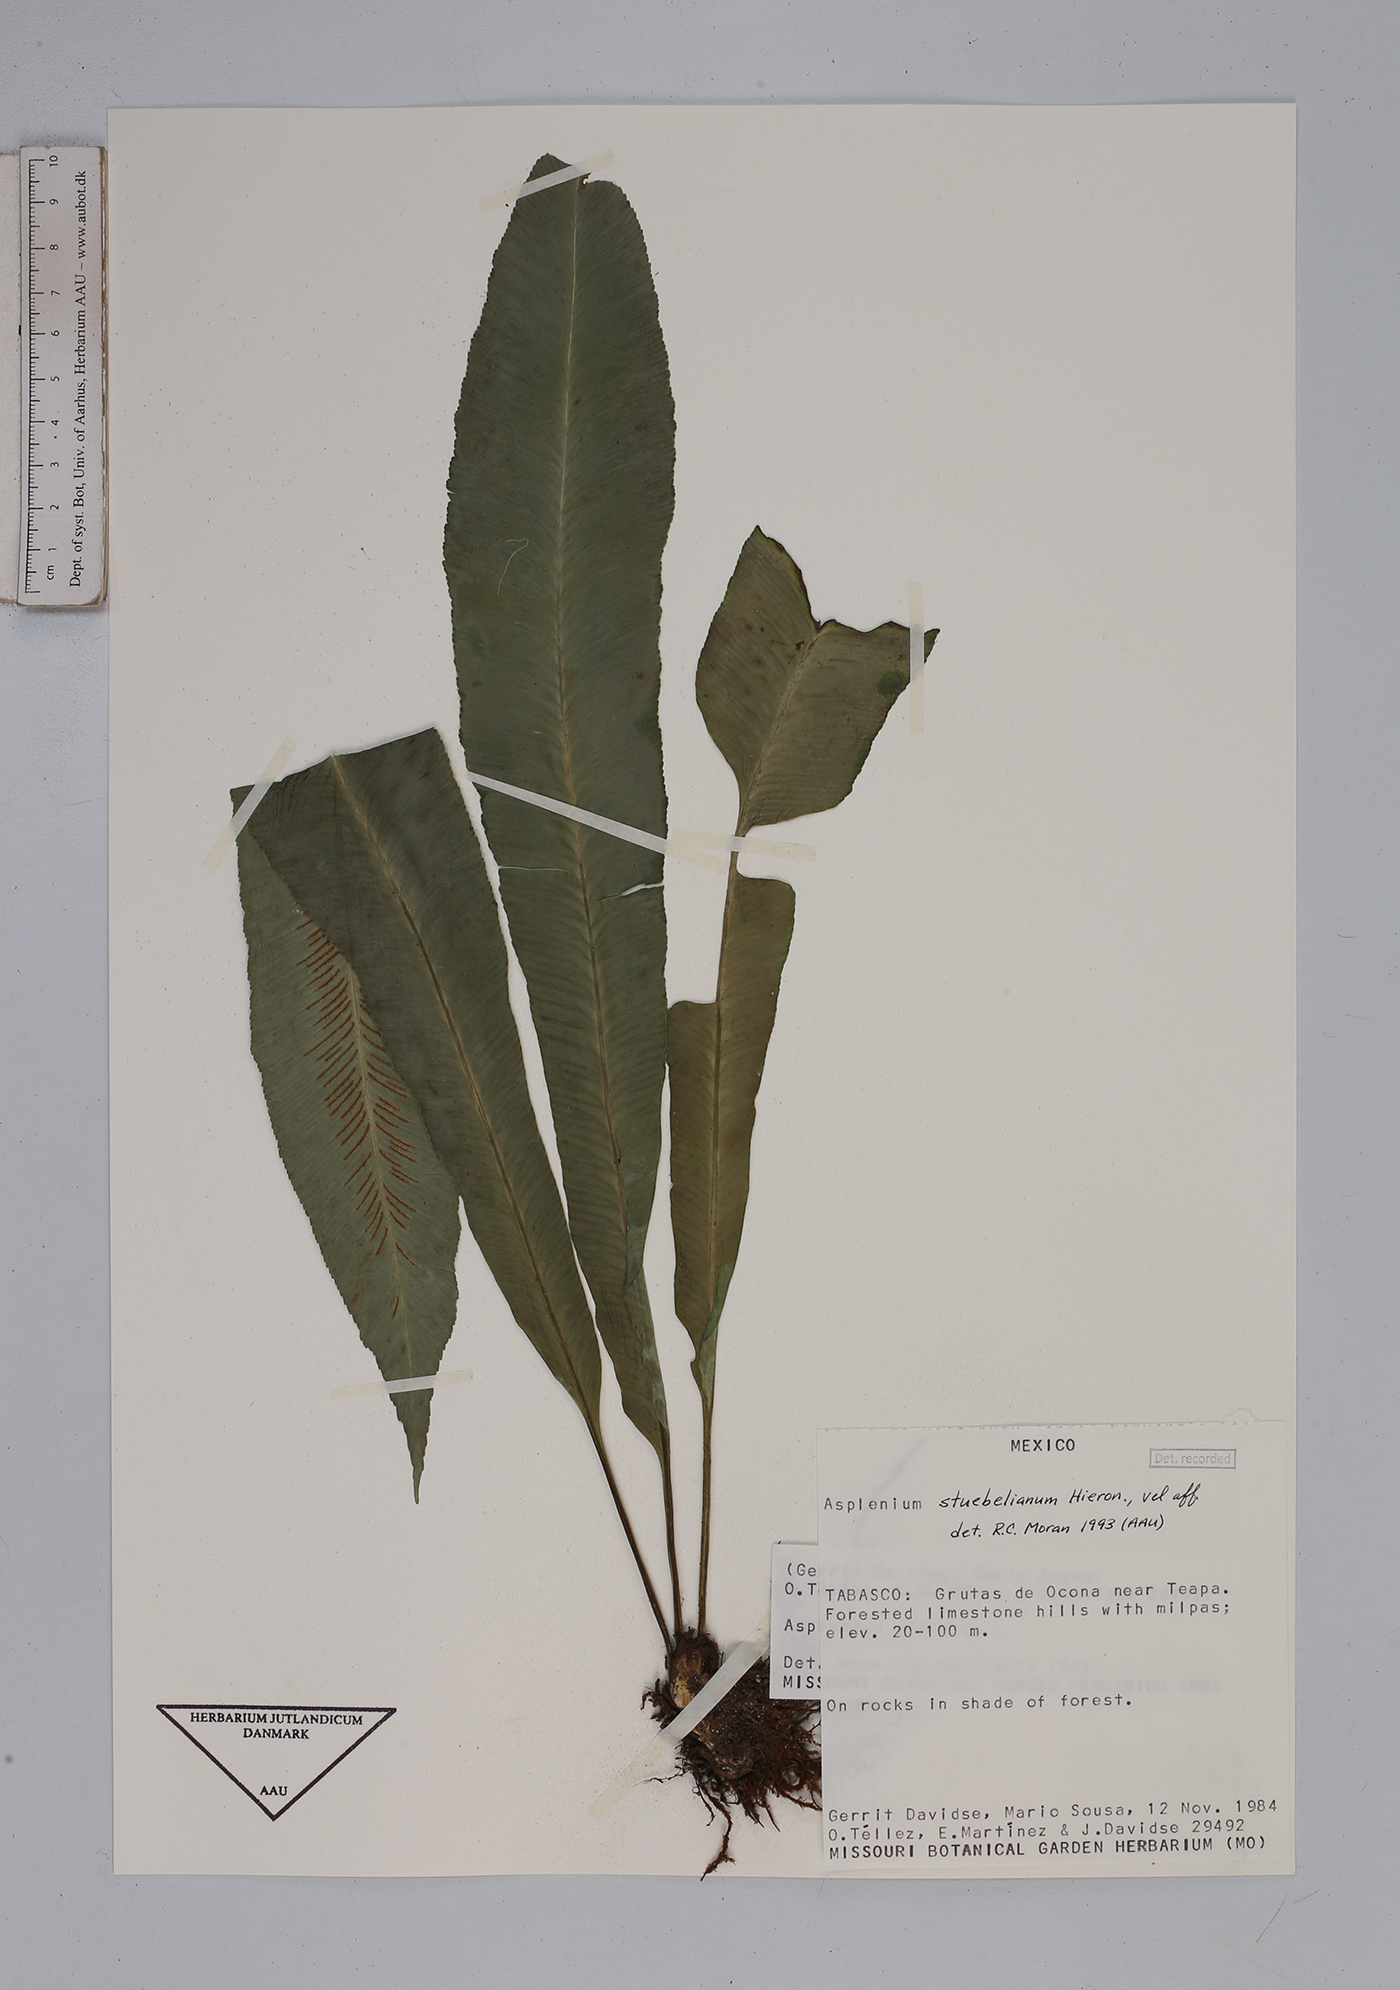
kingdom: Plantae
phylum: Tracheophyta
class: Polypodiopsida
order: Polypodiales
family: Aspleniaceae
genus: Asplenium
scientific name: Asplenium stuebelianum
